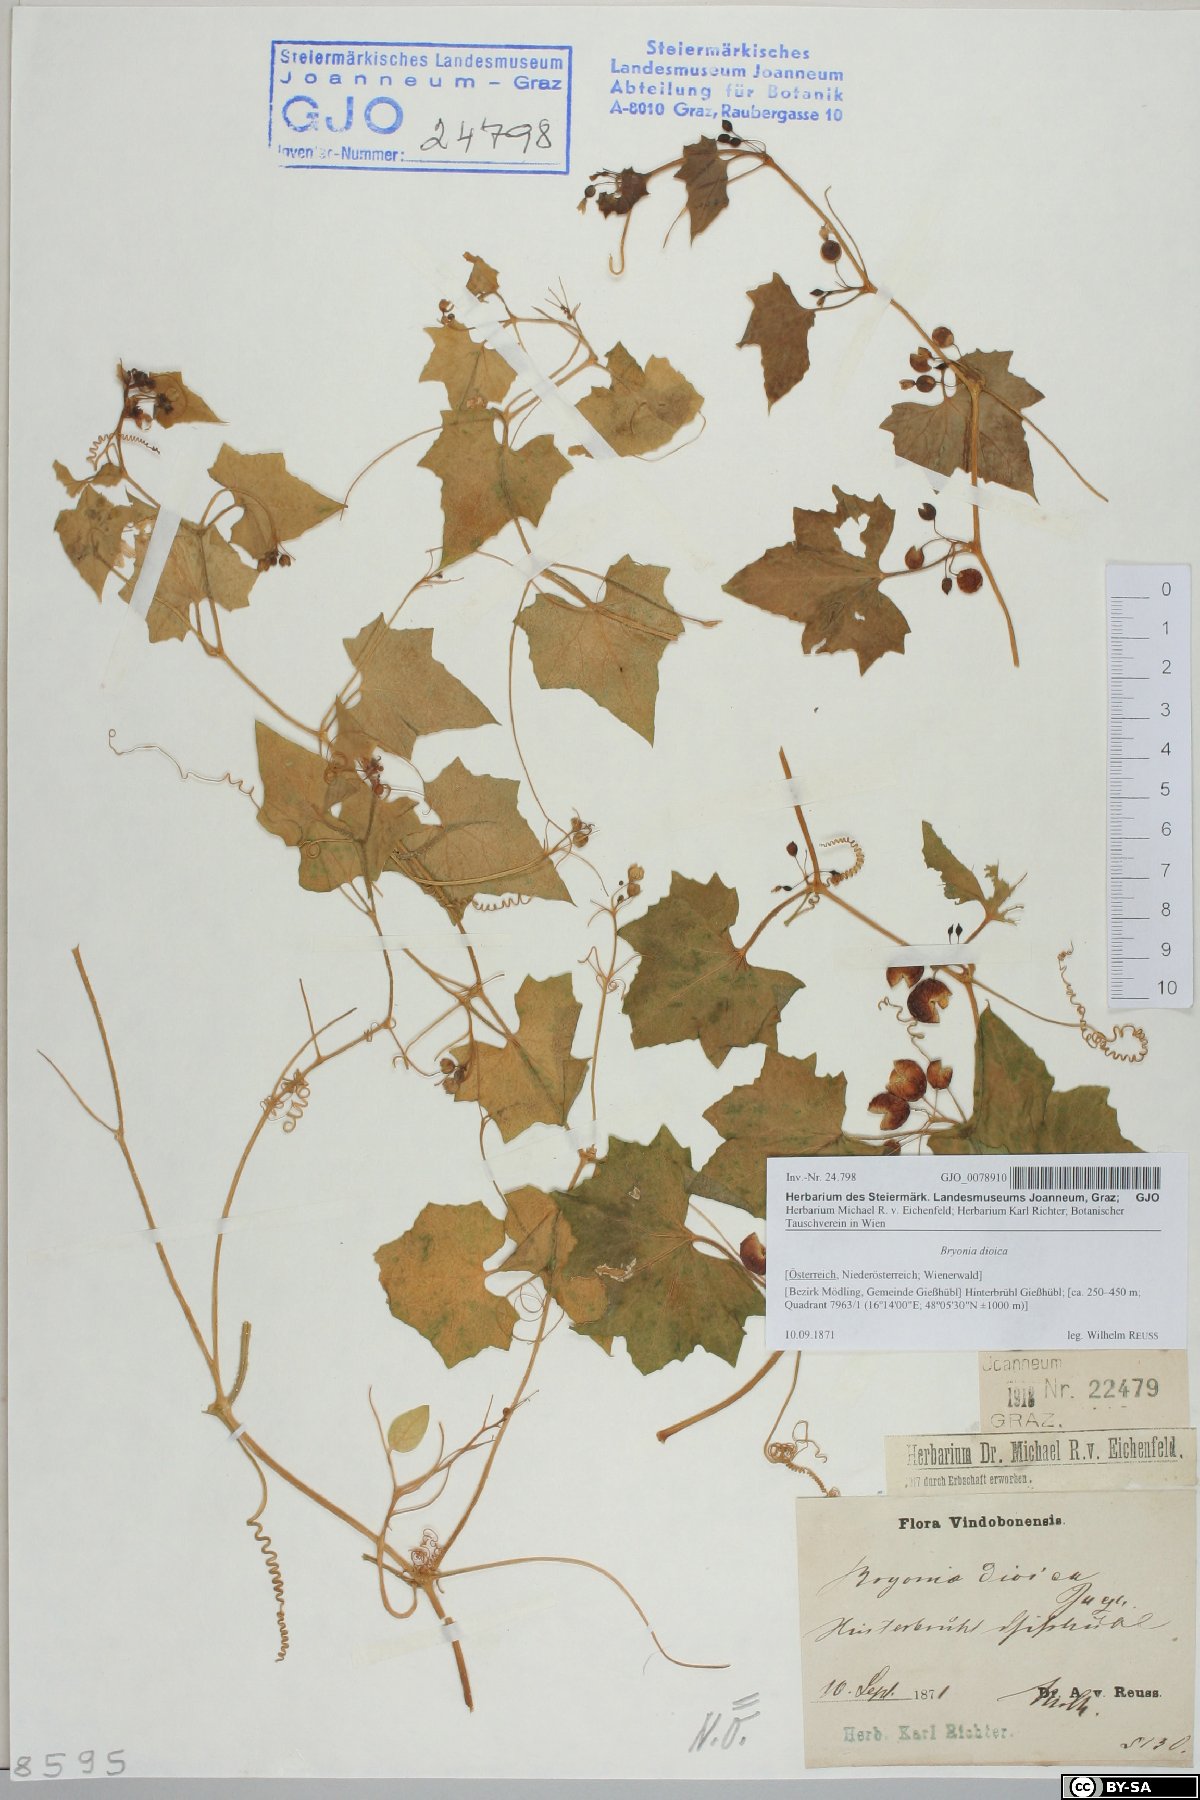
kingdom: Plantae
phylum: Tracheophyta
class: Magnoliopsida
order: Cucurbitales
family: Cucurbitaceae
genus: Bryonia
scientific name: Bryonia dioica
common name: White bryony
